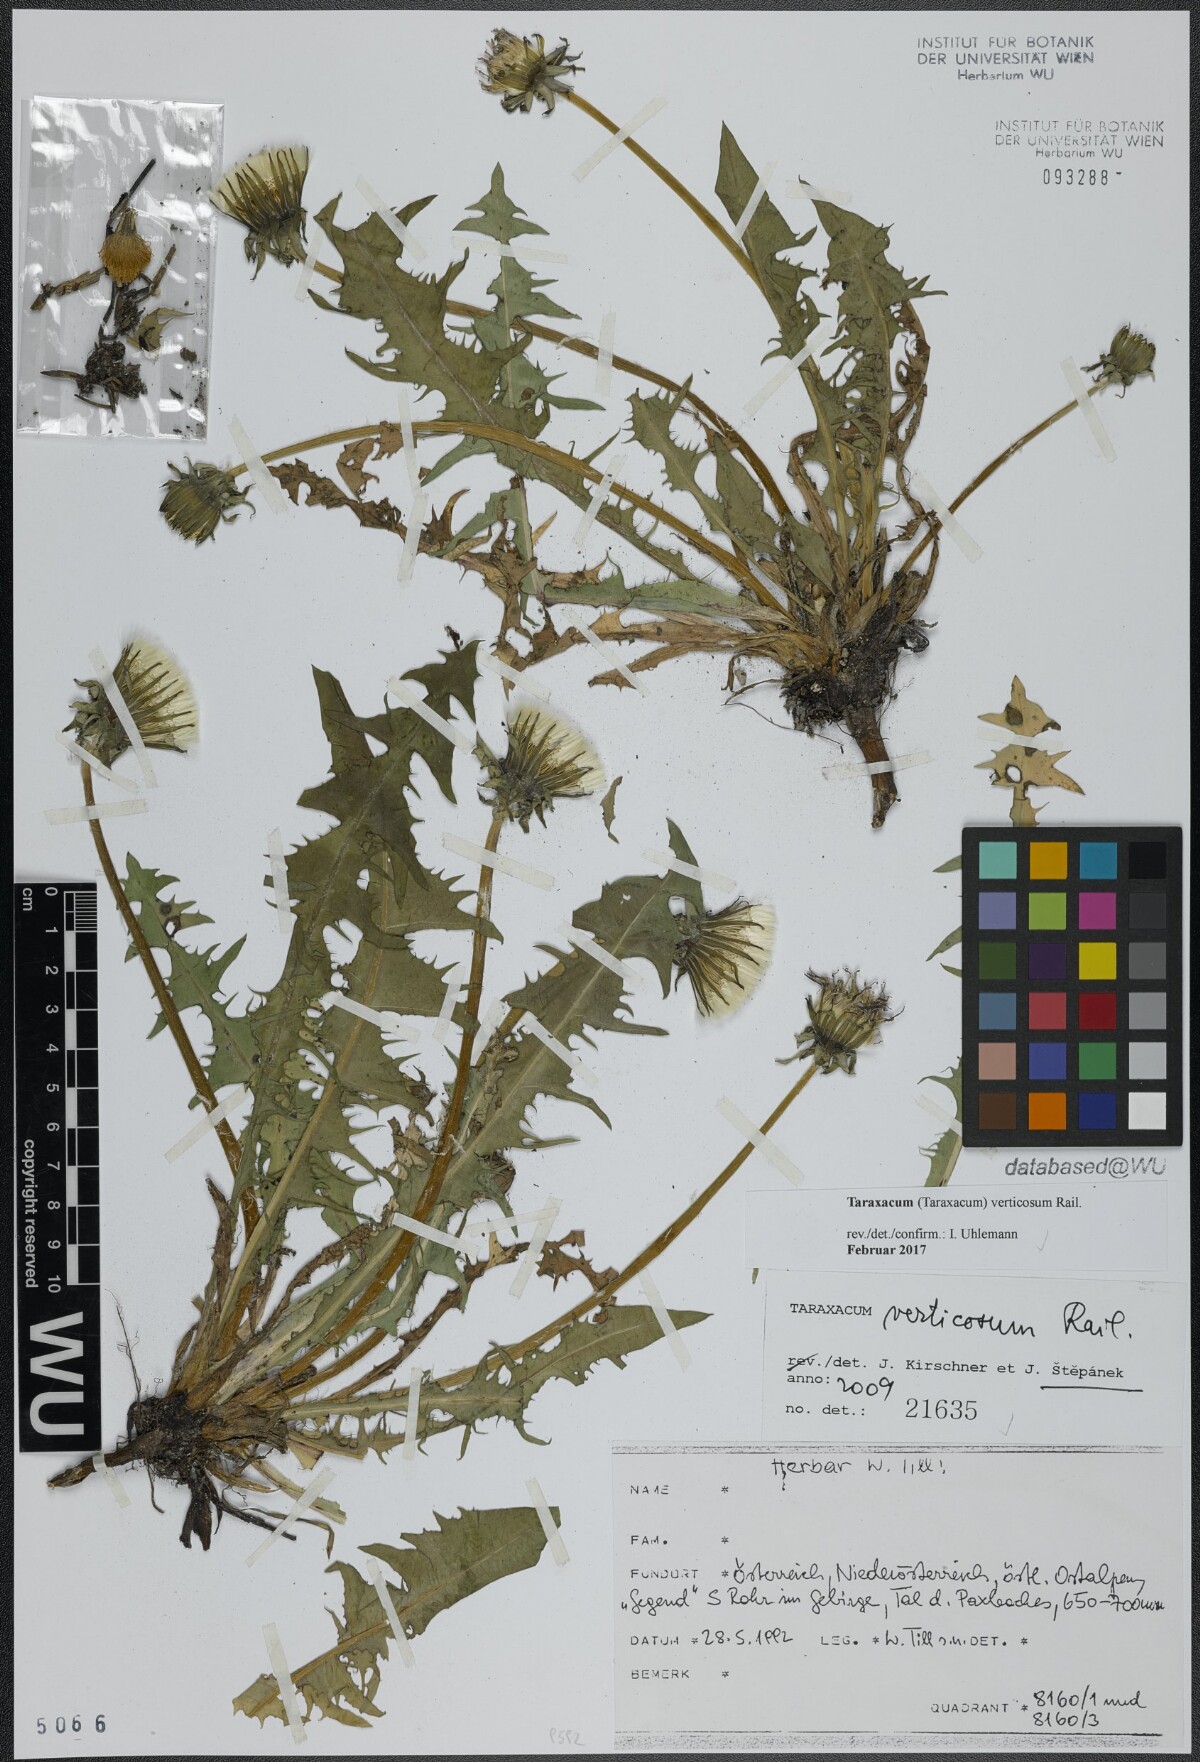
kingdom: Plantae
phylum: Tracheophyta
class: Magnoliopsida
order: Asterales
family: Asteraceae
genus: Taraxacum
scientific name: Taraxacum verticosum
